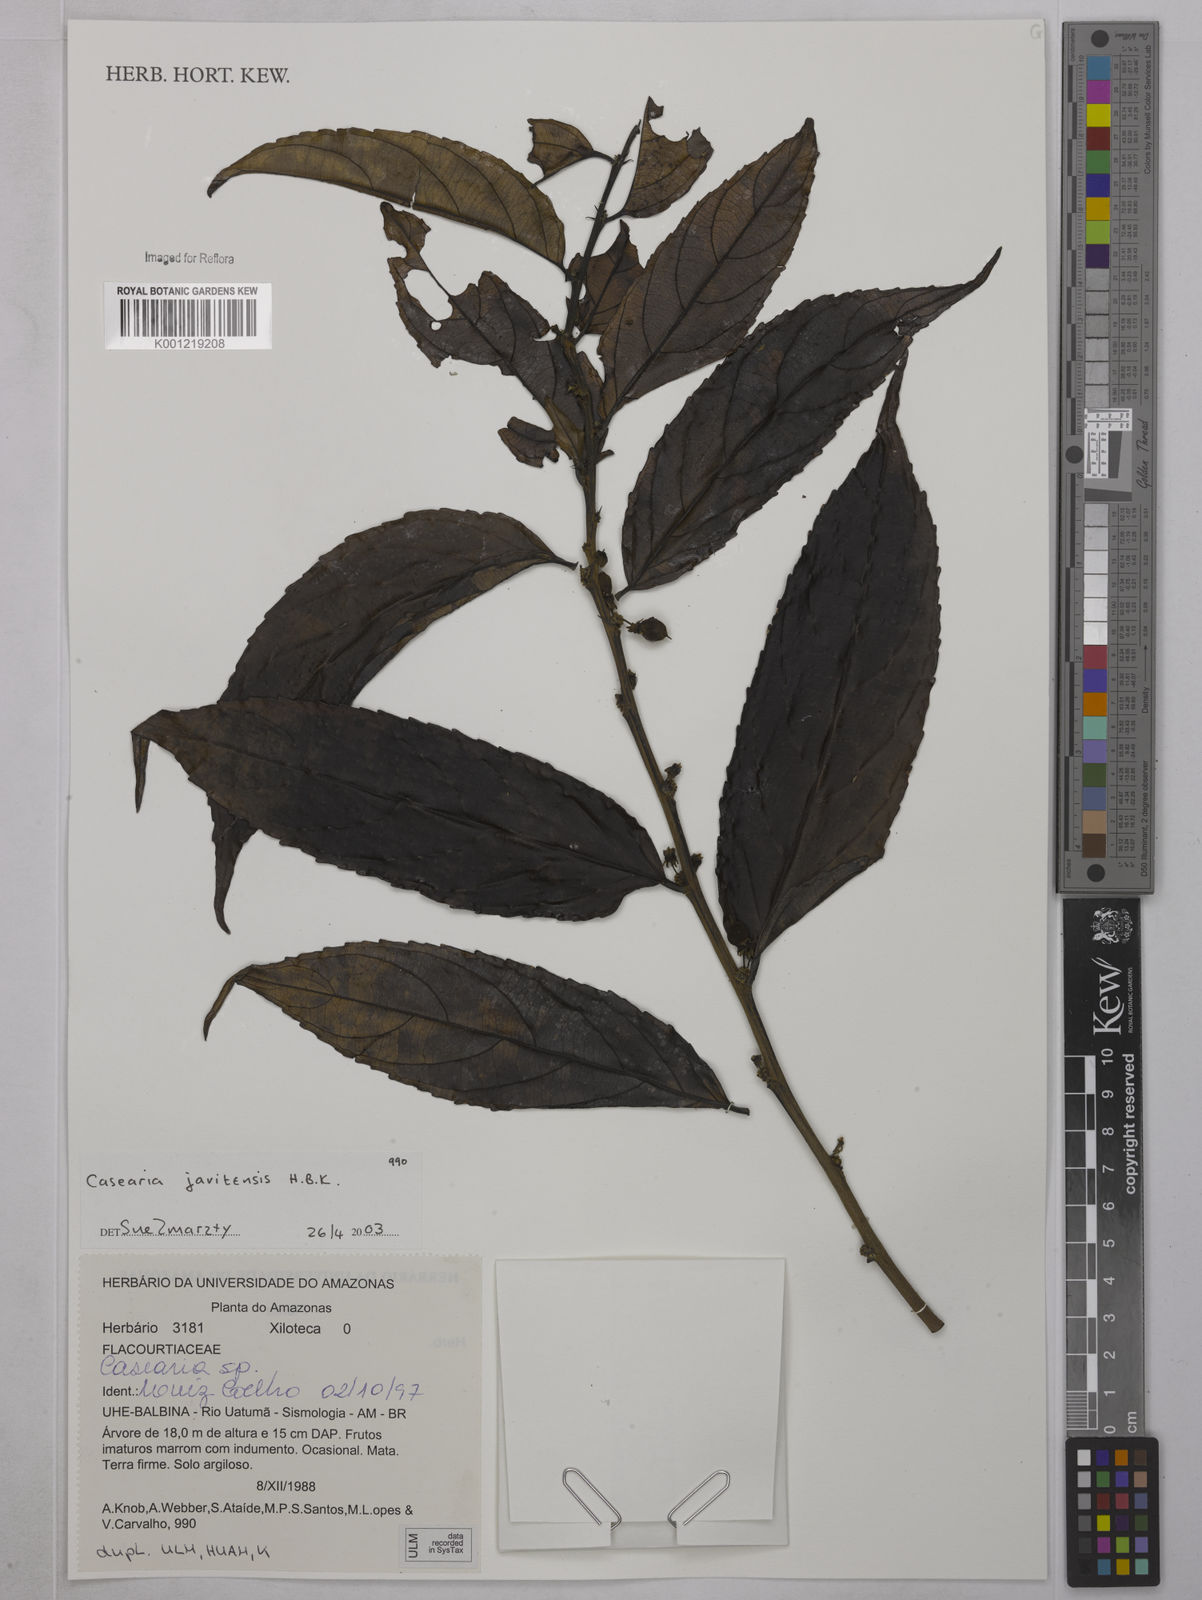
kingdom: Plantae
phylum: Tracheophyta
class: Magnoliopsida
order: Malpighiales
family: Salicaceae
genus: Piparea
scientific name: Piparea multiflora
